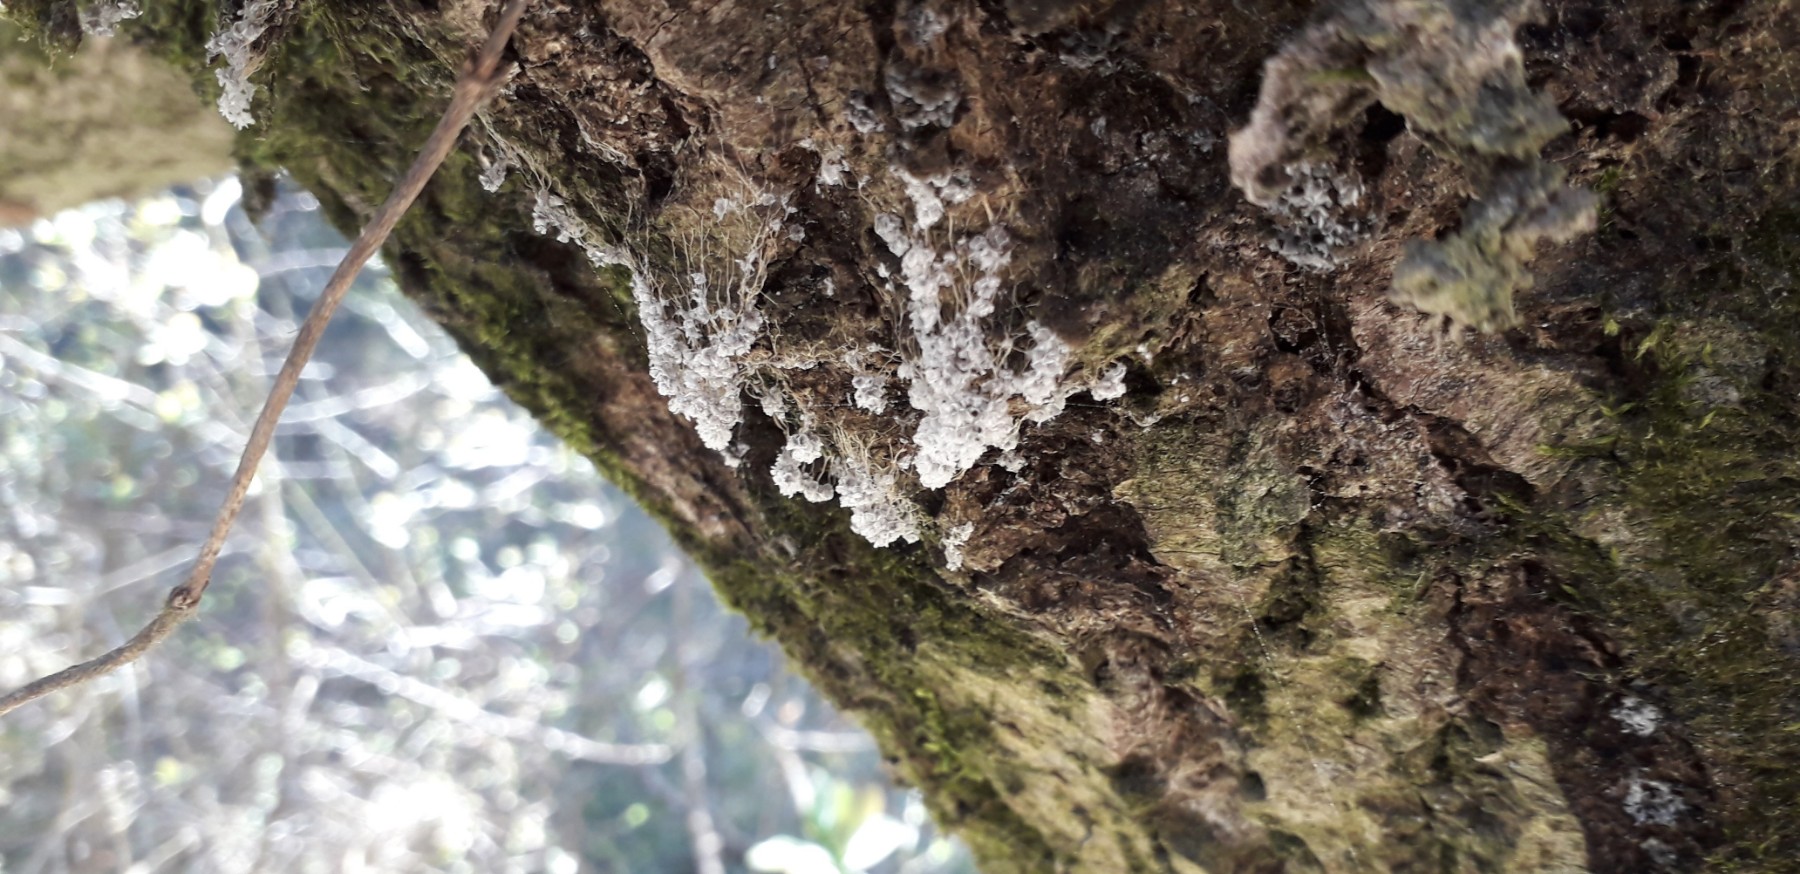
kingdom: Protozoa
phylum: Mycetozoa
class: Myxomycetes
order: Physarales
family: Physaraceae
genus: Badhamia
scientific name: Badhamia utricularis
